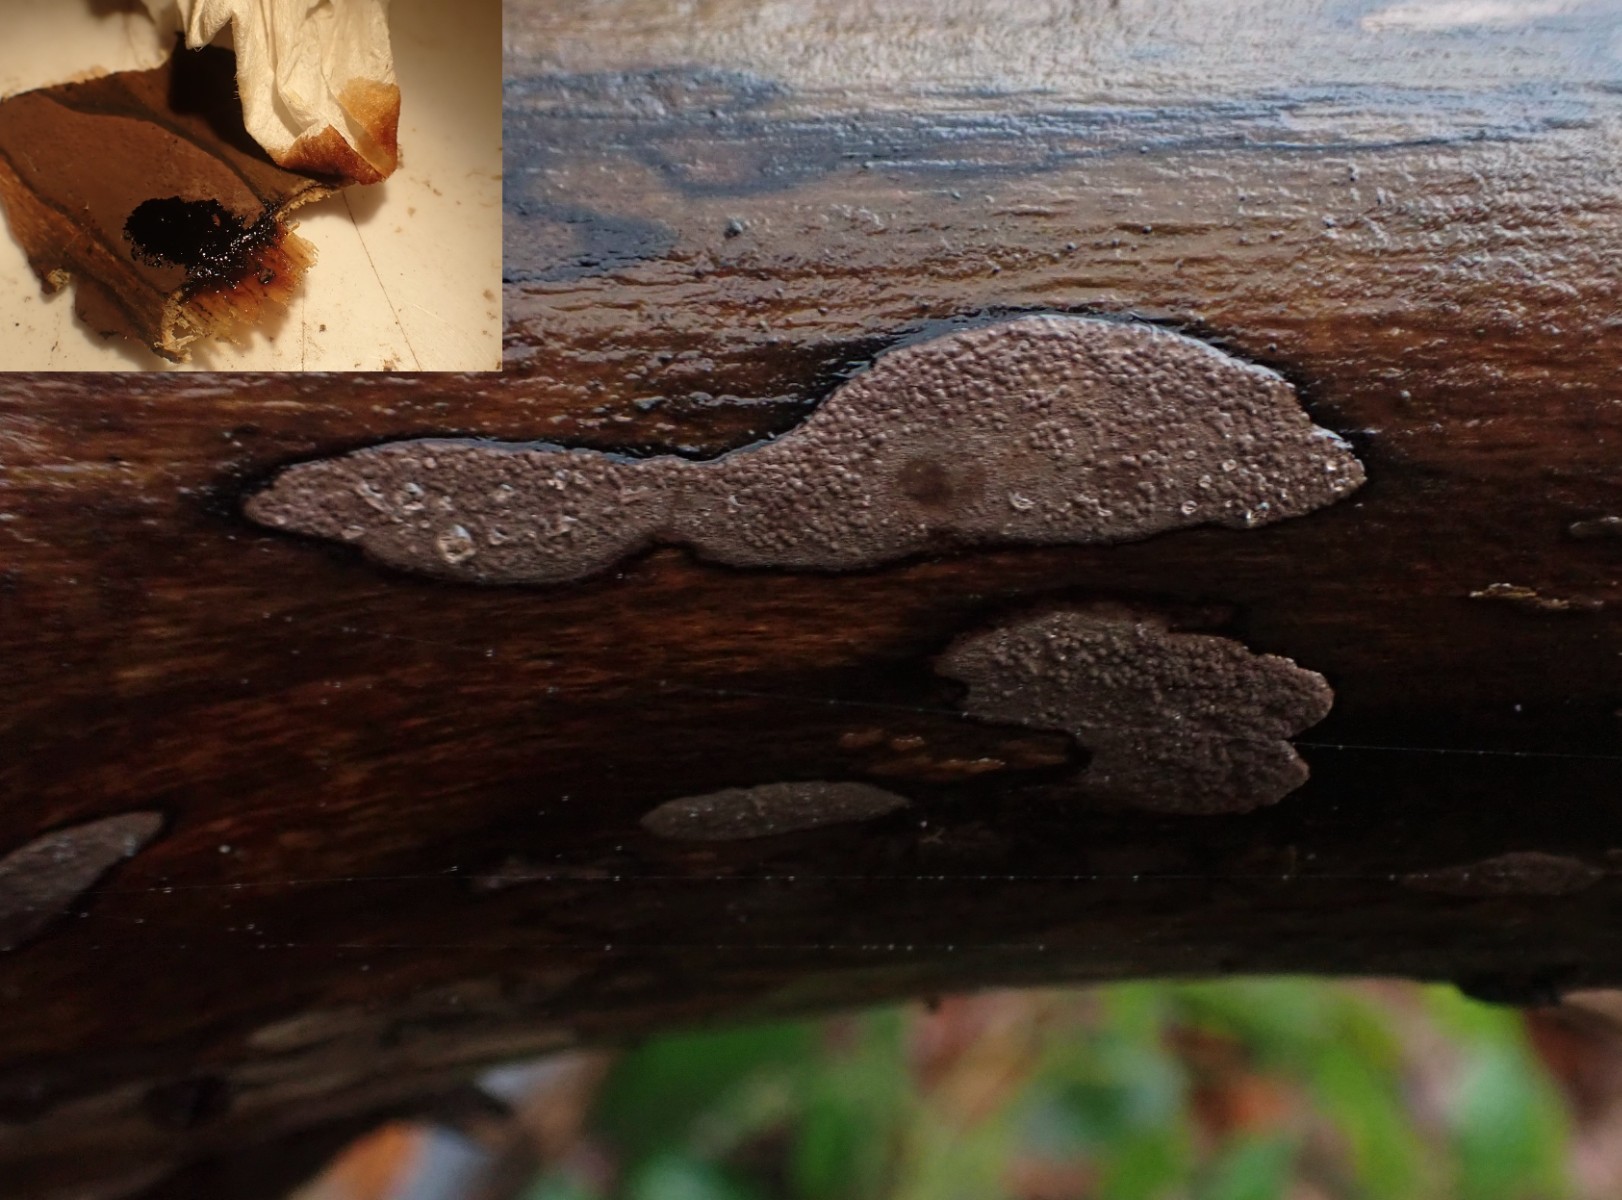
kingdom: Fungi
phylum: Ascomycota
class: Sordariomycetes
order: Xylariales
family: Hypoxylaceae
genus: Hypoxylon
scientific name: Hypoxylon petriniae
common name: nedsænket kulbær
